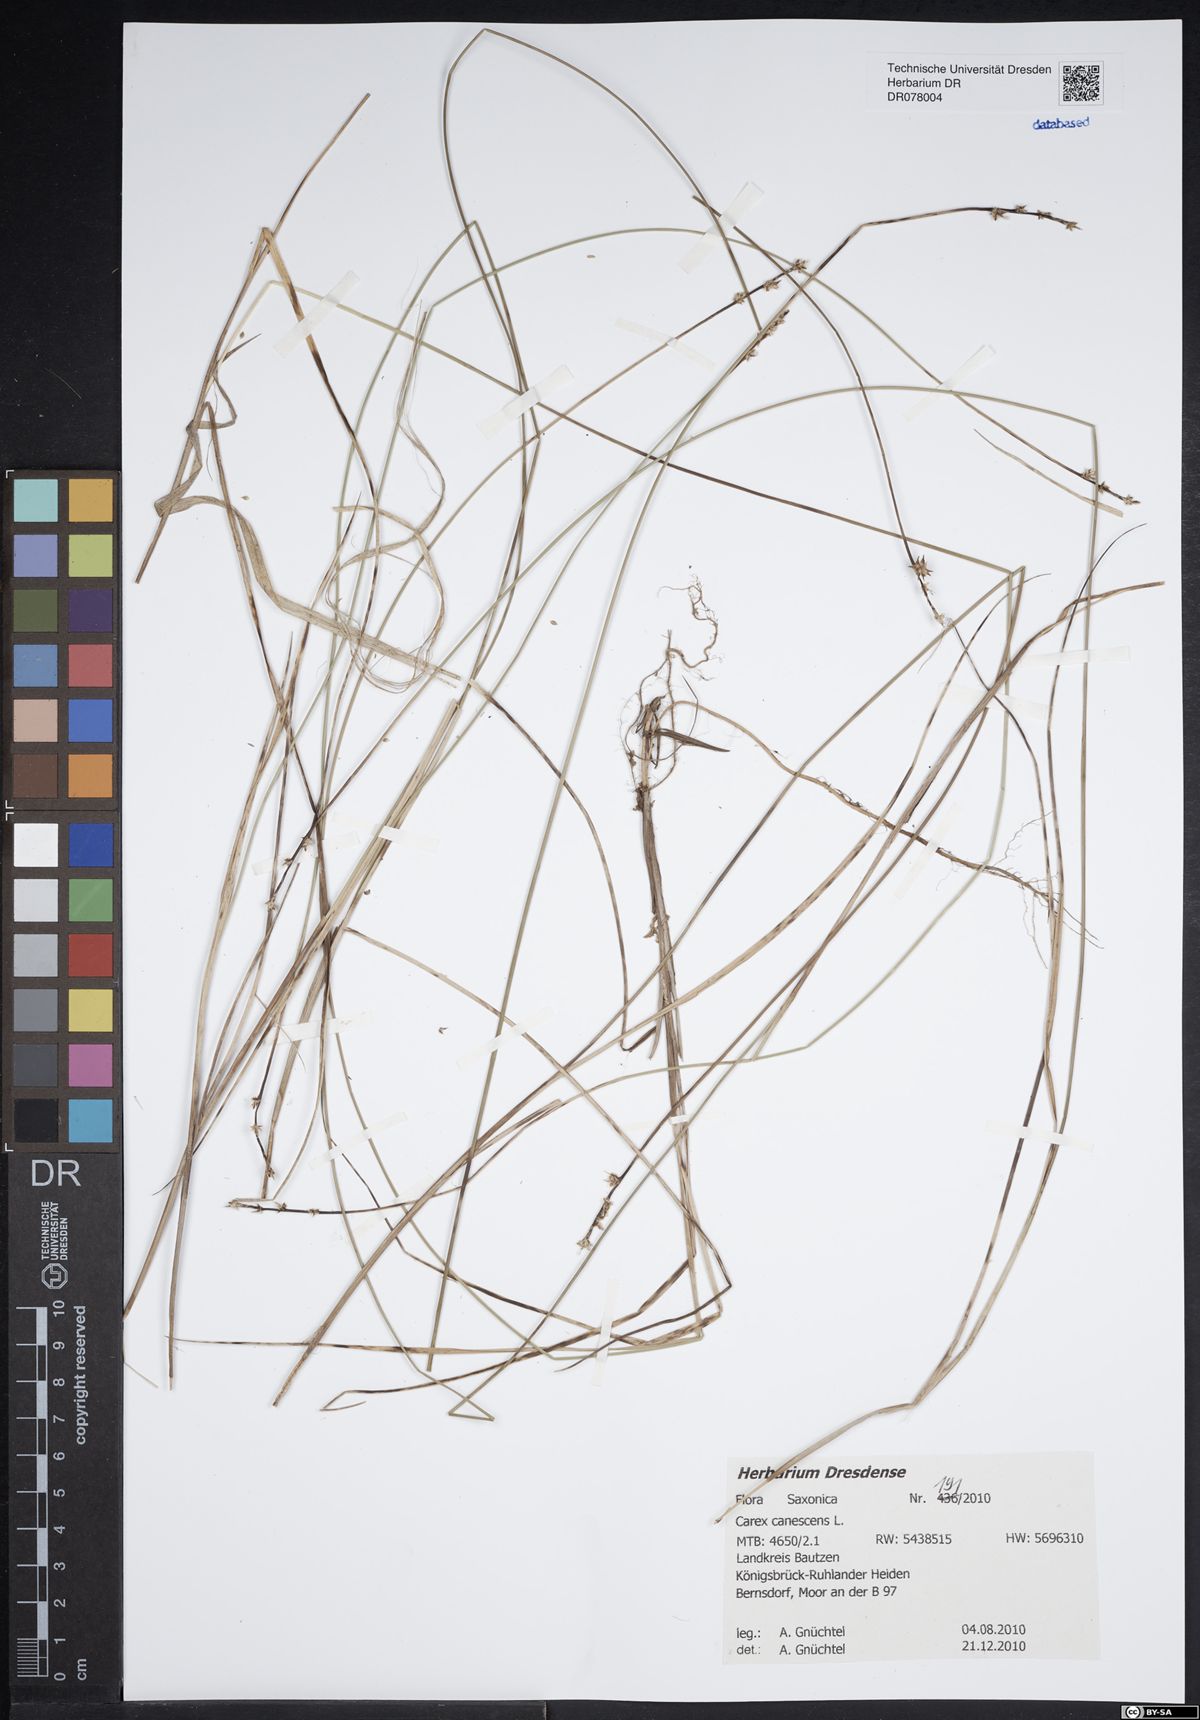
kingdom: Plantae
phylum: Tracheophyta
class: Liliopsida
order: Poales
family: Cyperaceae
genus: Carex
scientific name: Carex canescens
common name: White sedge
